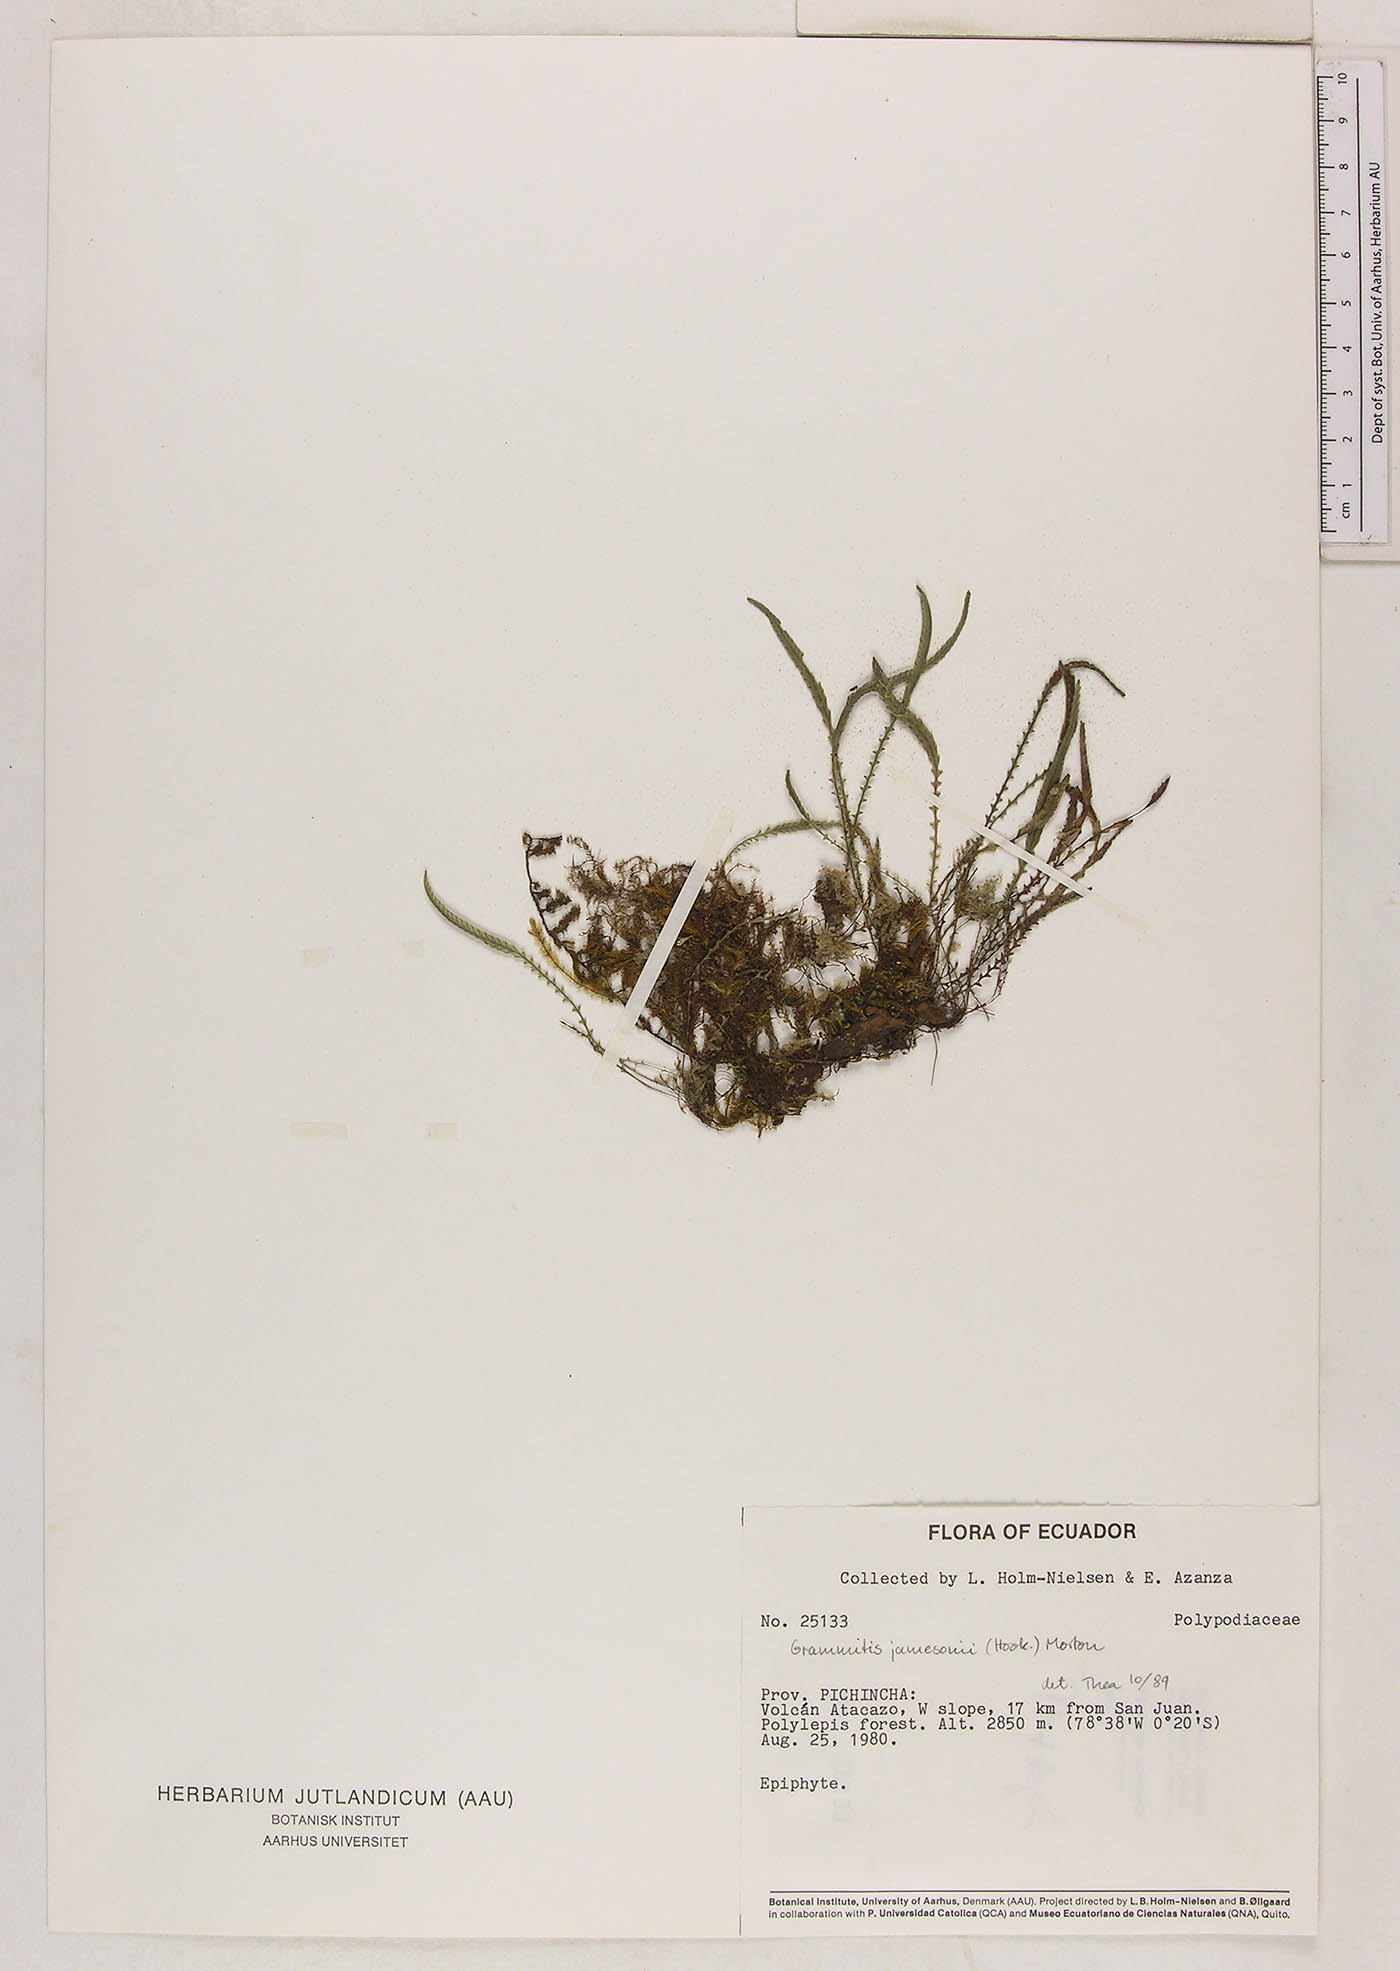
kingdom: Plantae
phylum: Tracheophyta
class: Polypodiopsida
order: Polypodiales
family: Polypodiaceae
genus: Stenogrammitis
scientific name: Stenogrammitis jamesonii
